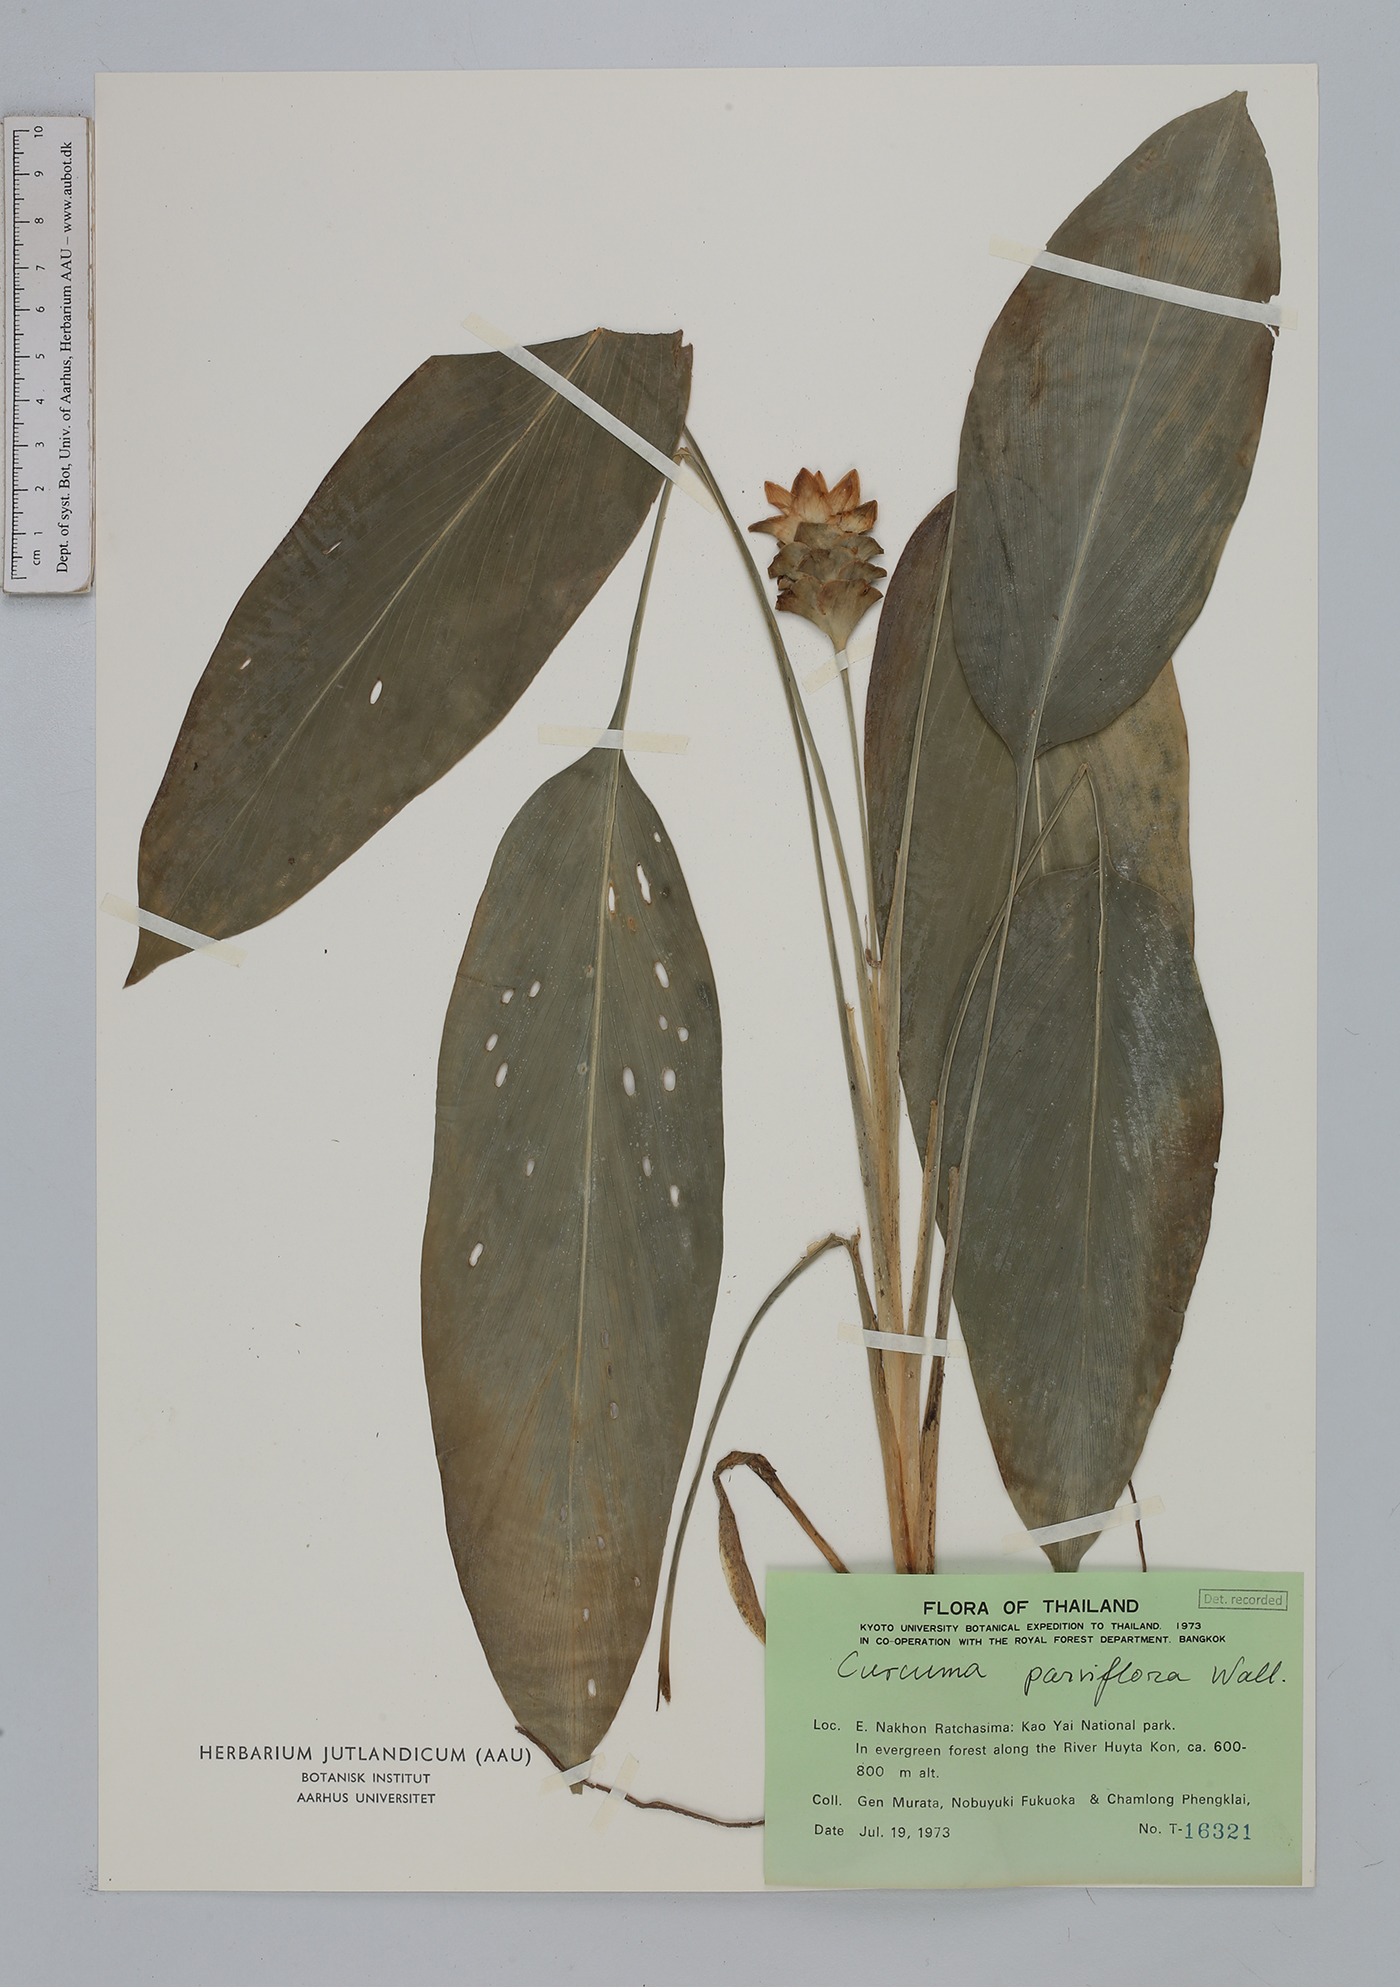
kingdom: Plantae
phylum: Tracheophyta
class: Liliopsida
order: Zingiberales
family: Zingiberaceae
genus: Curcuma
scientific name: Curcuma parviflora
